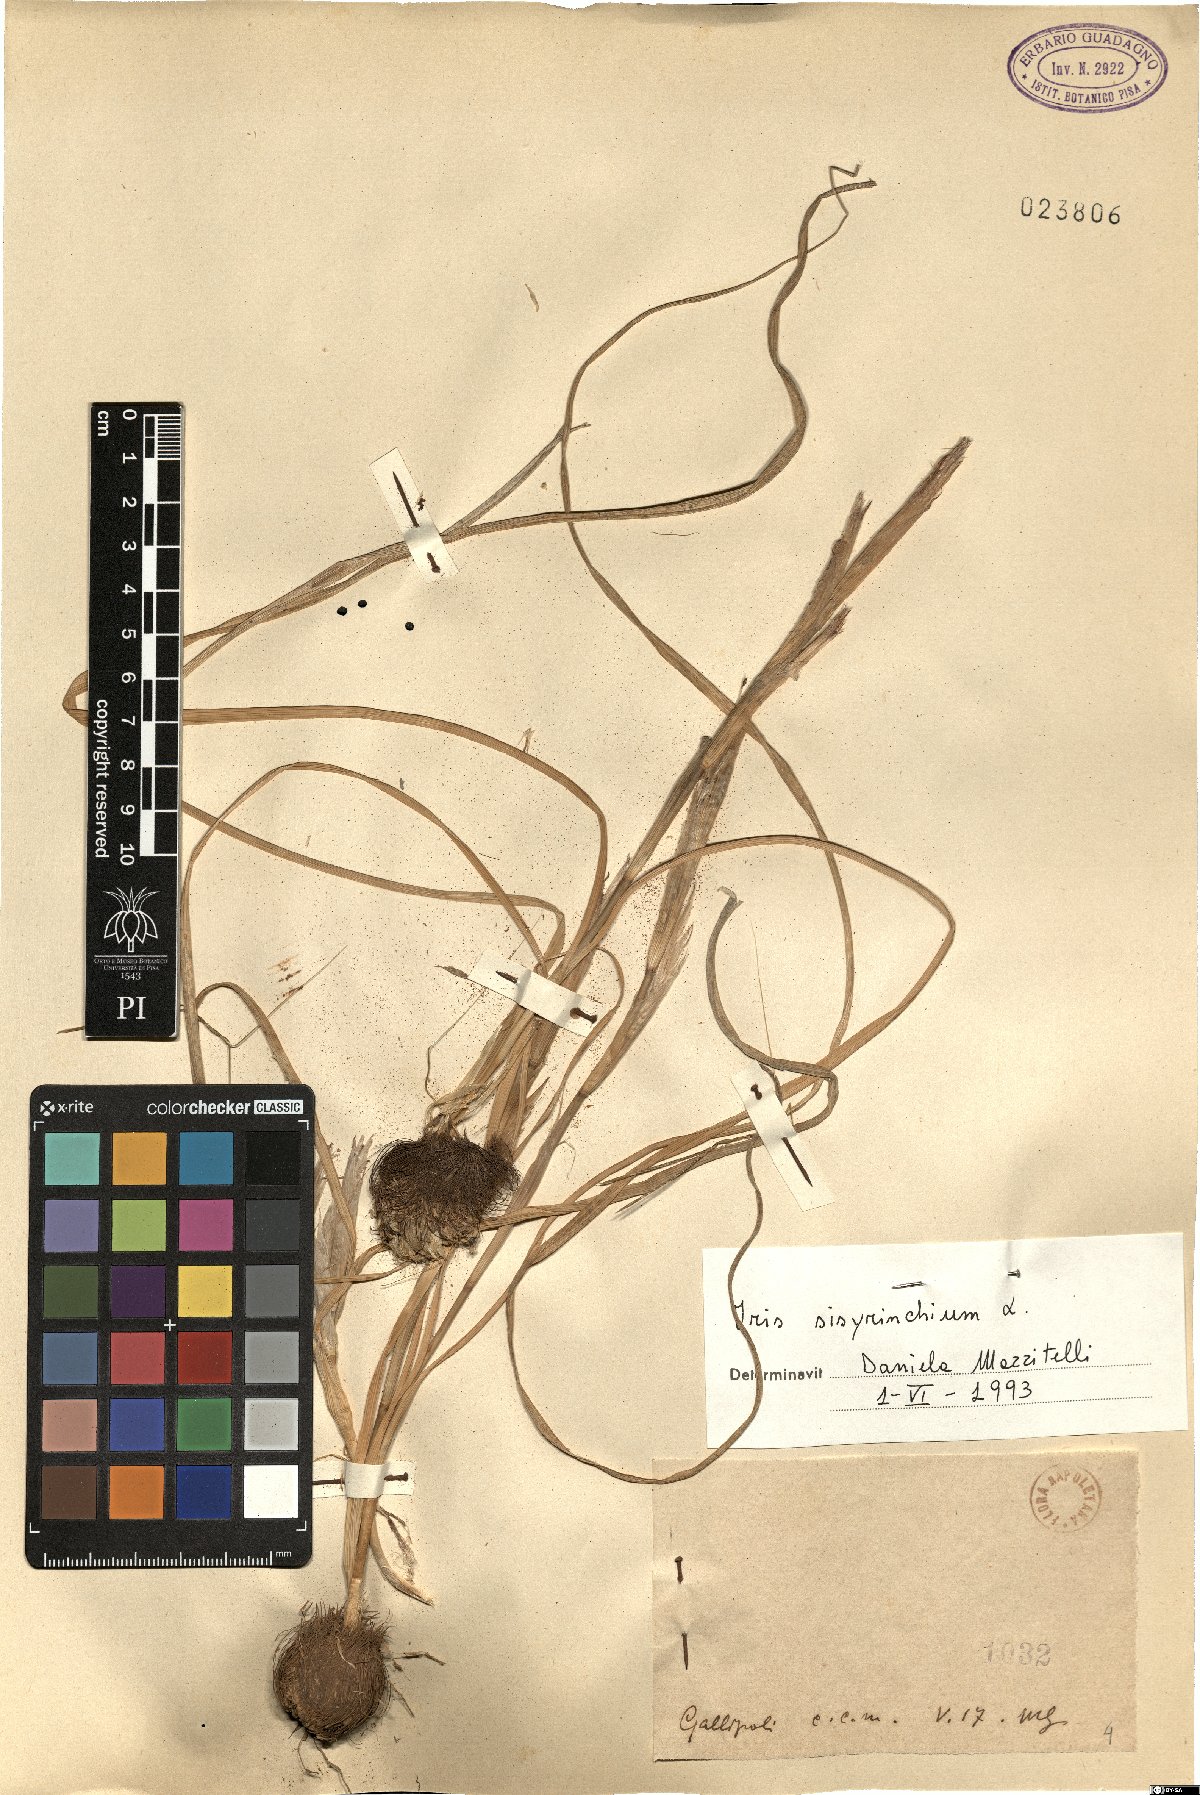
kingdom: Plantae
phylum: Tracheophyta
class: Liliopsida
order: Asparagales
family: Iridaceae
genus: Moraea
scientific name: Moraea sisyrinchium
